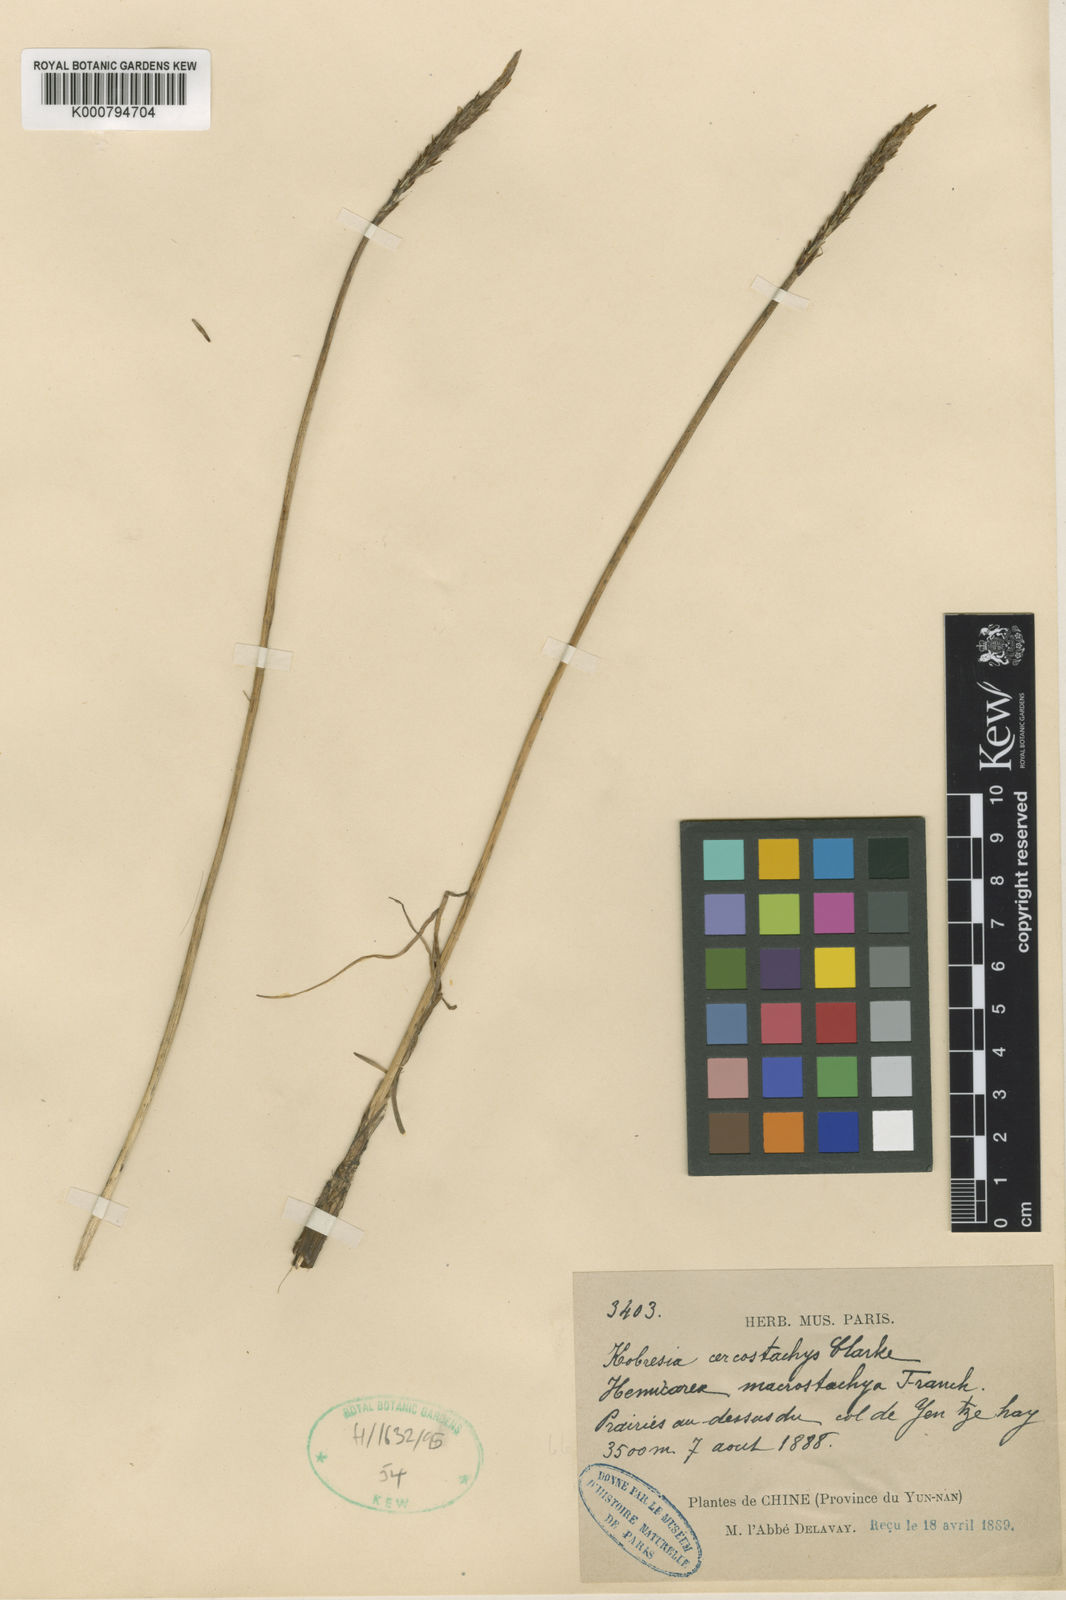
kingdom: Plantae
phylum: Tracheophyta
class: Liliopsida
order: Poales
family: Cyperaceae
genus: Carex
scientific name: Carex cercostachys
